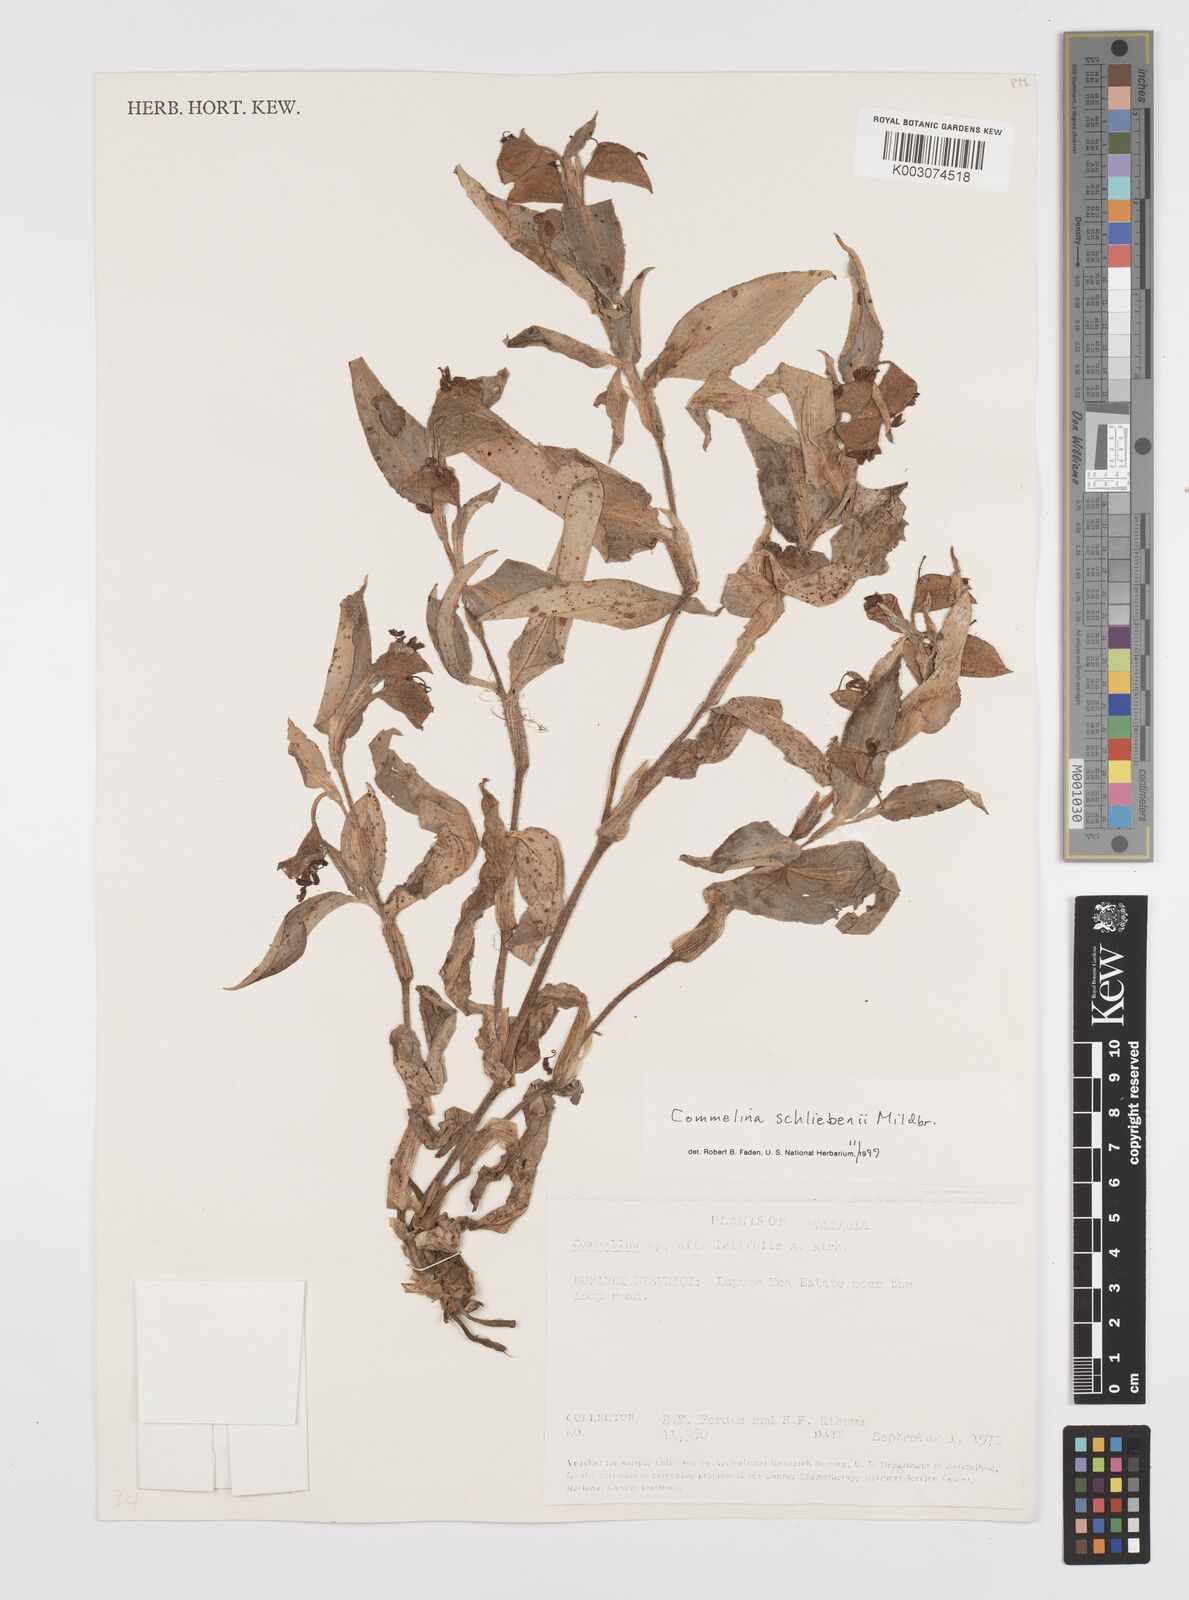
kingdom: Plantae
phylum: Tracheophyta
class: Liliopsida
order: Commelinales
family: Commelinaceae
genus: Commelina
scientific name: Commelina schliebenii
